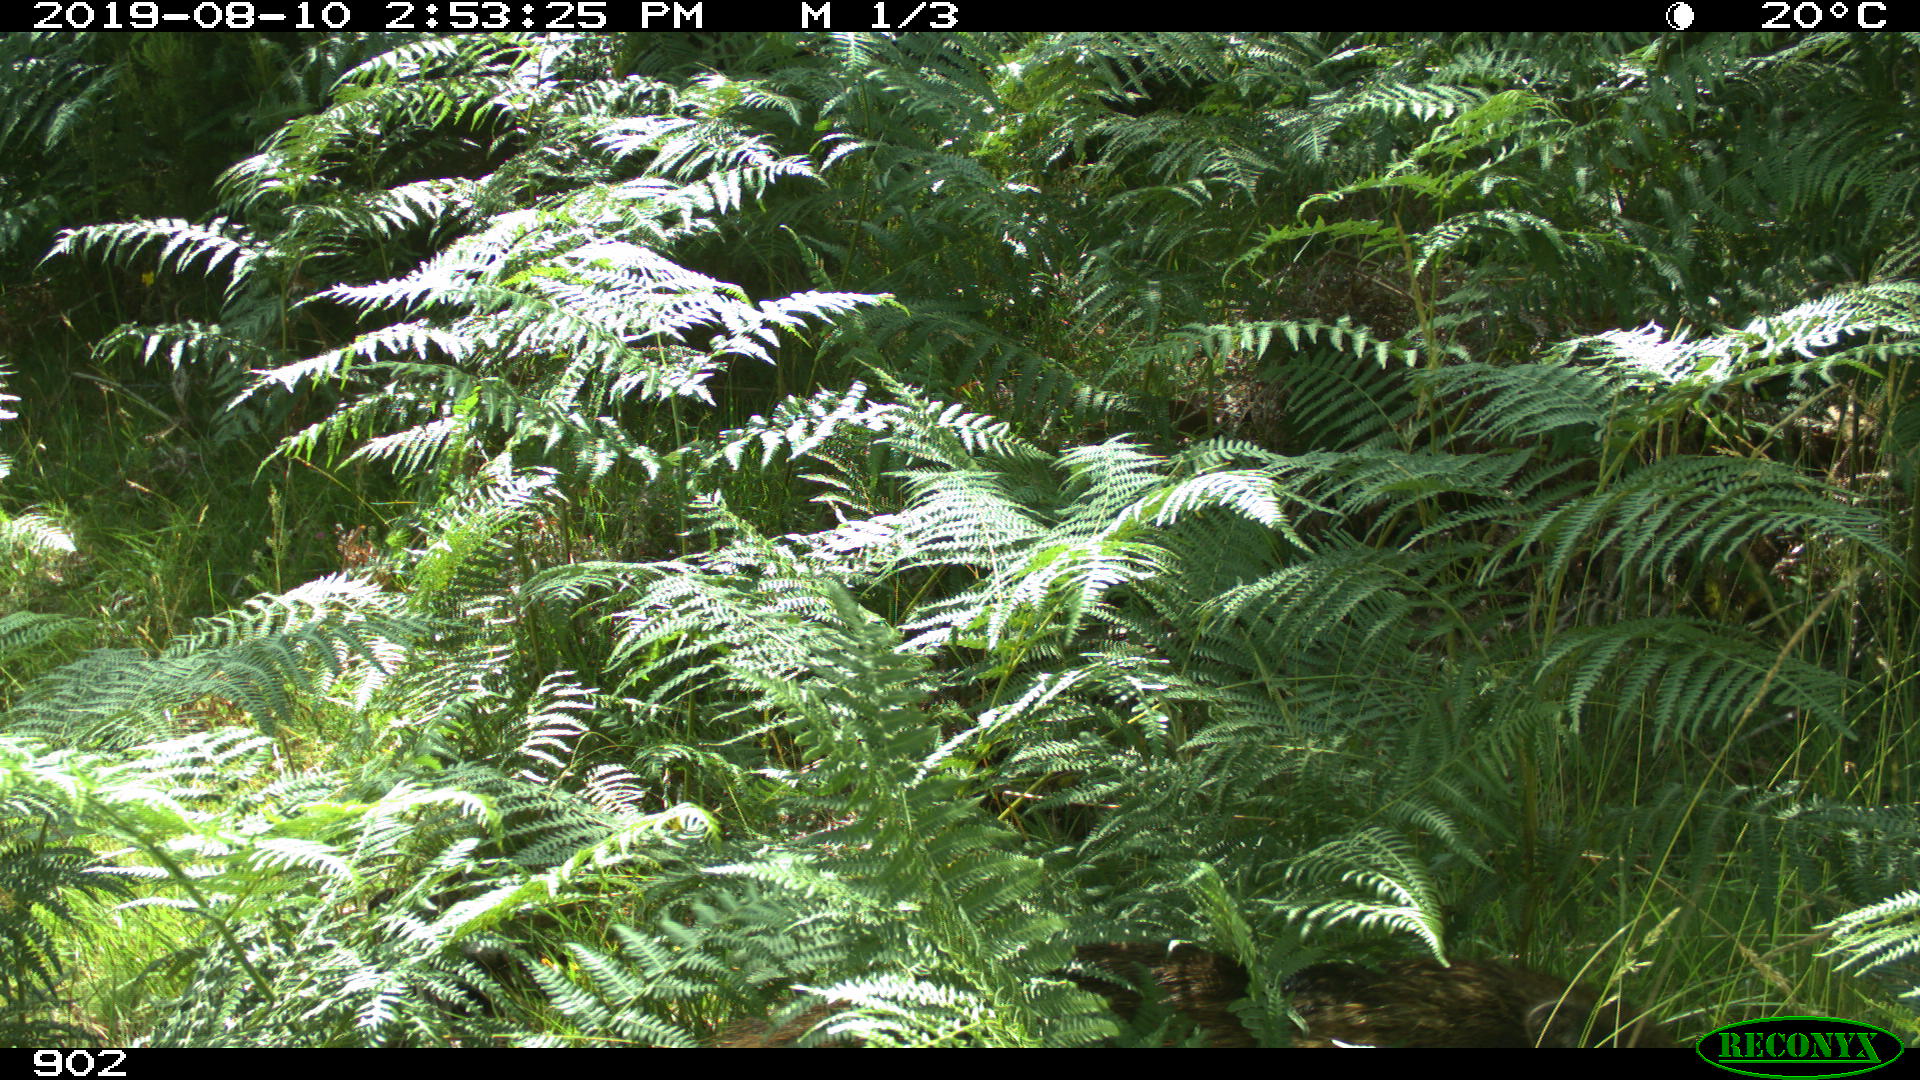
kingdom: Animalia
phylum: Chordata
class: Mammalia
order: Artiodactyla
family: Suidae
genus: Sus
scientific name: Sus scrofa
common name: Wild boar
